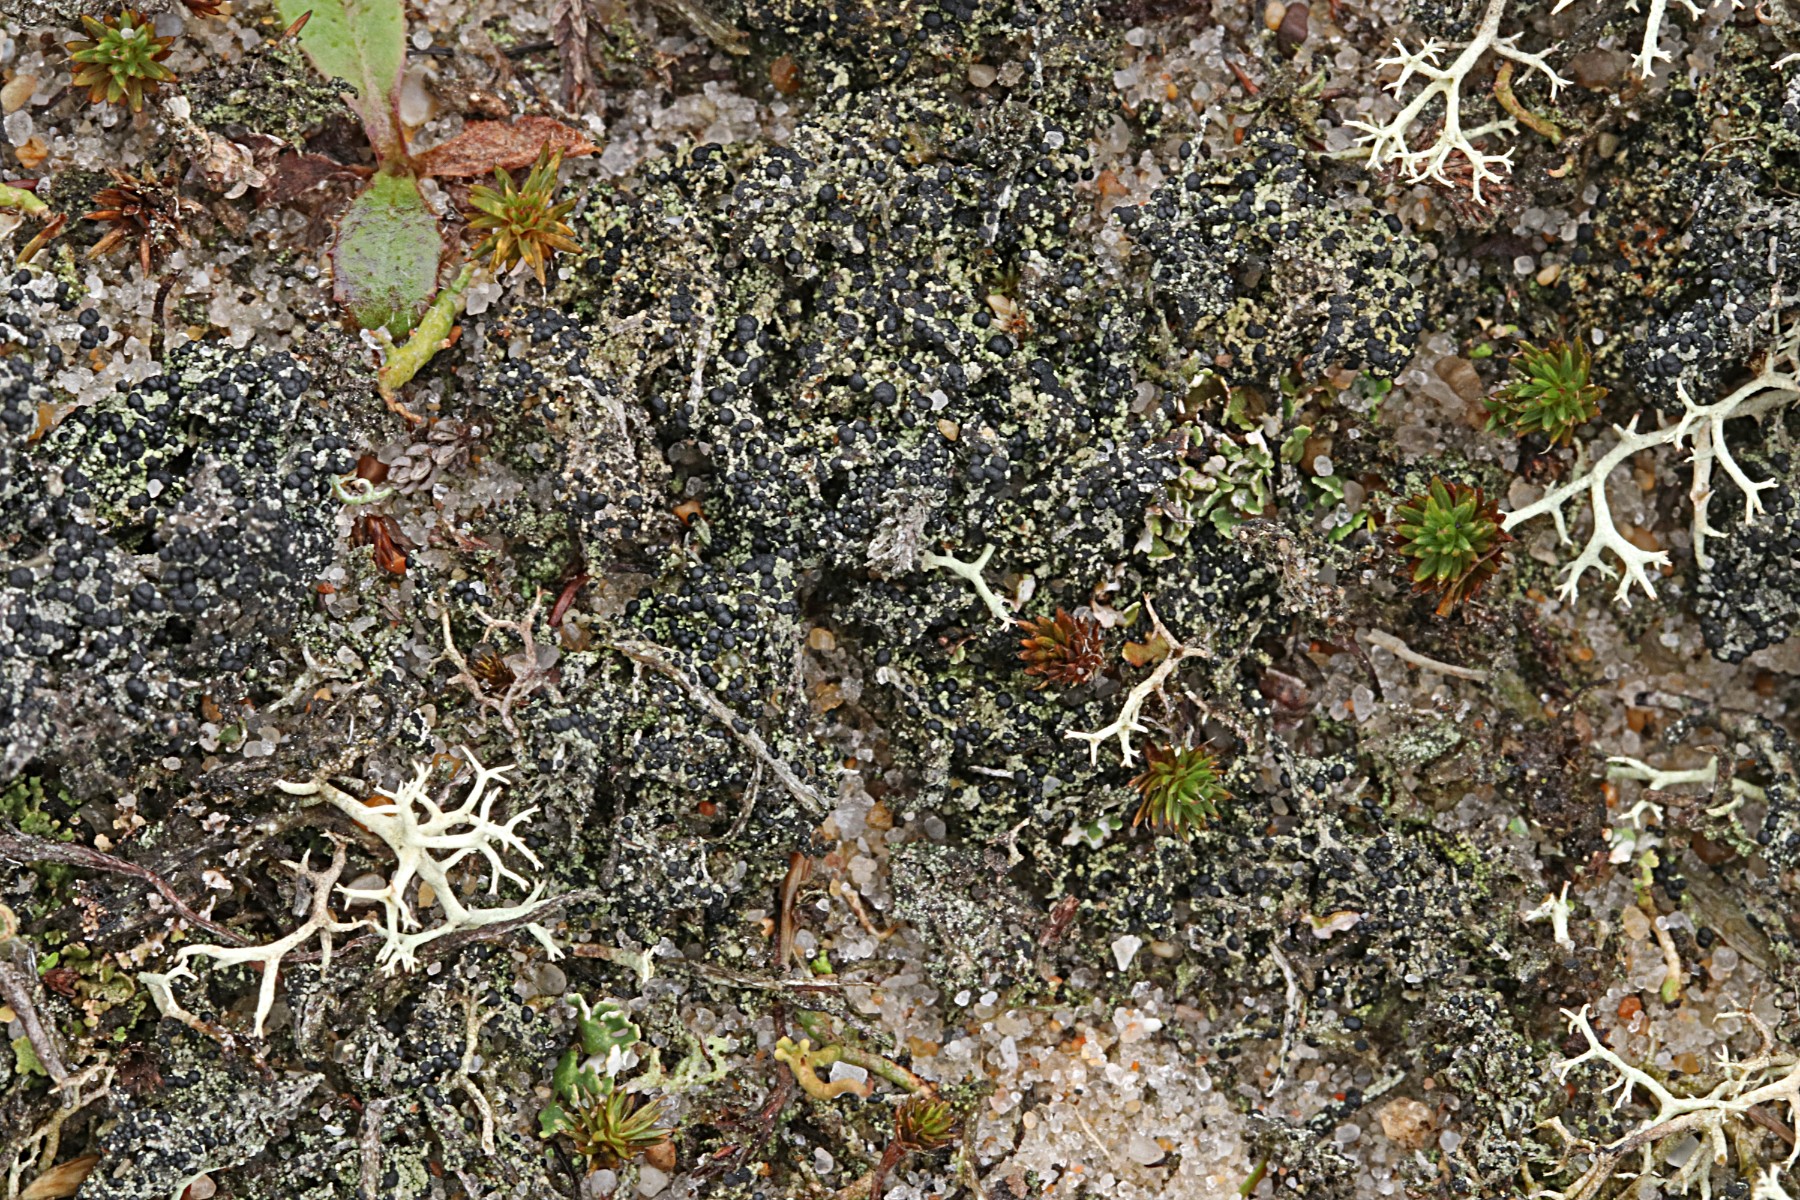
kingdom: Fungi
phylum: Ascomycota
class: Lecanoromycetes
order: Lecanorales
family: Byssolomataceae
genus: Micarea
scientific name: Micarea lignaria
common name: tørve-knaplav
